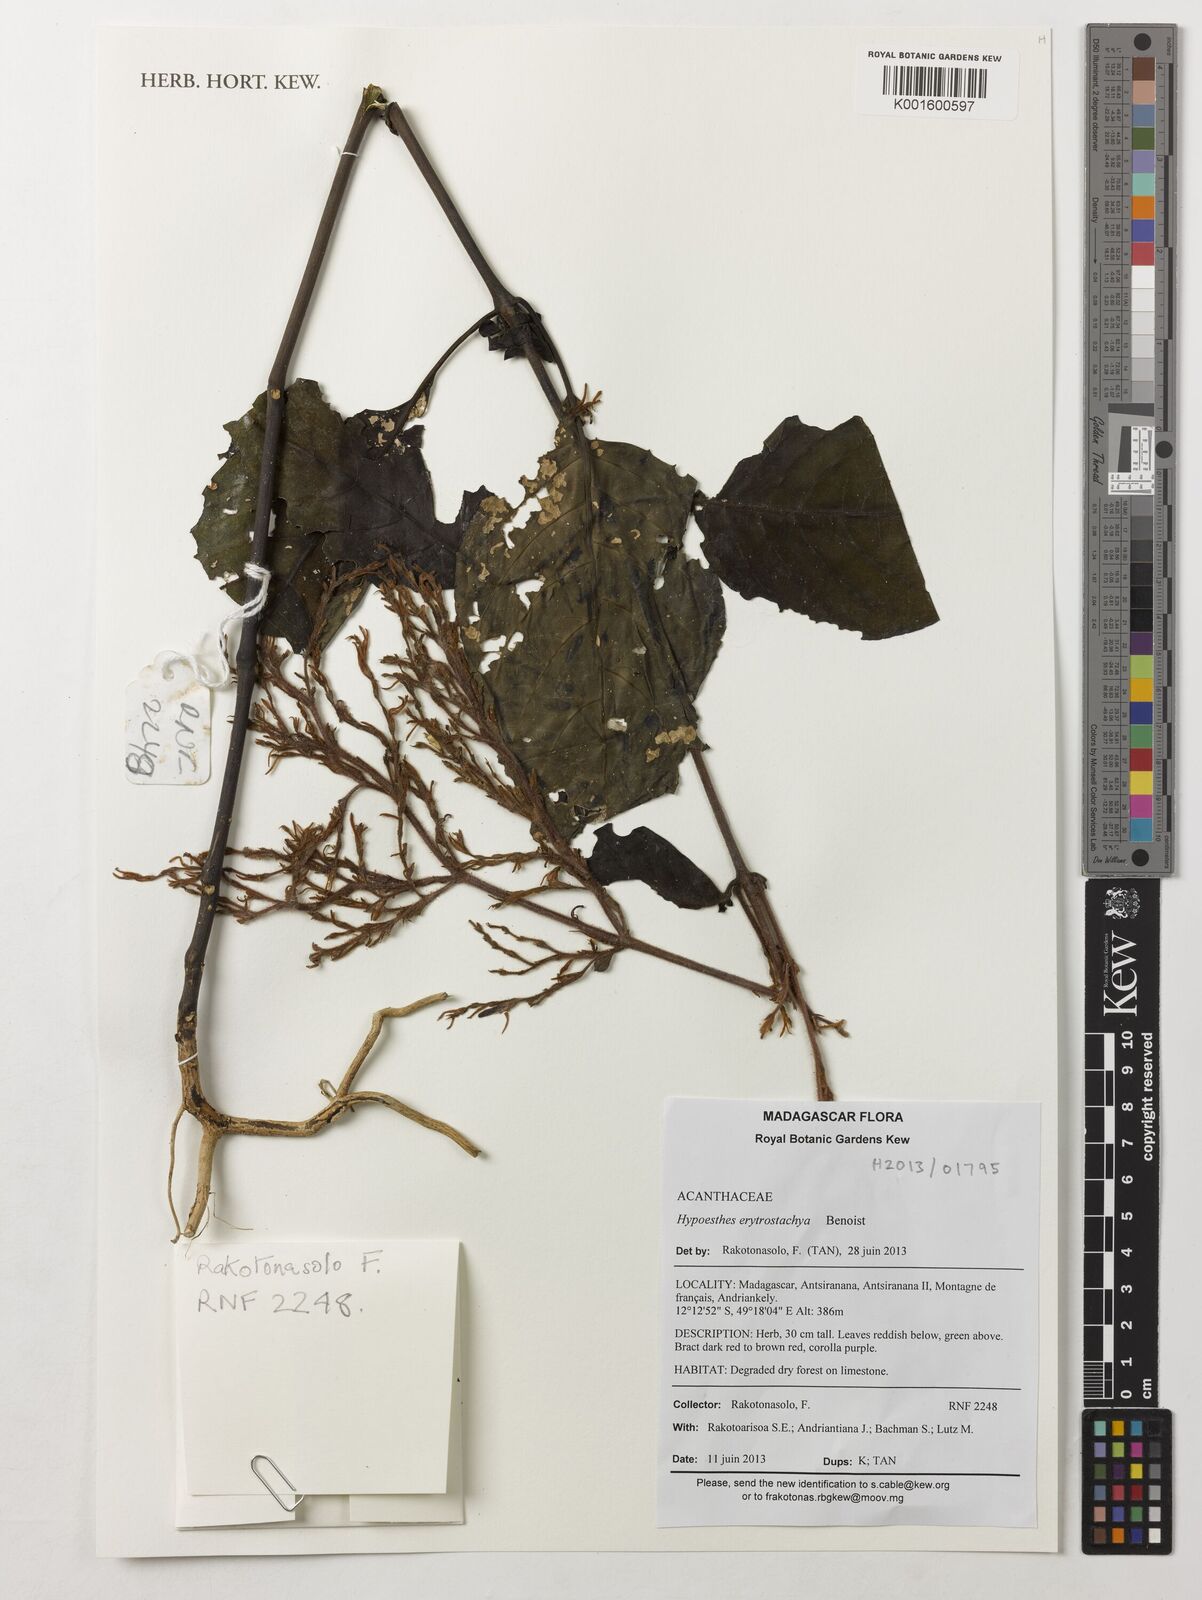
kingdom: Plantae
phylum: Tracheophyta
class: Magnoliopsida
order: Lamiales
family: Acanthaceae
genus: Hypoestes
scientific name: Hypoestes erythrostachya
